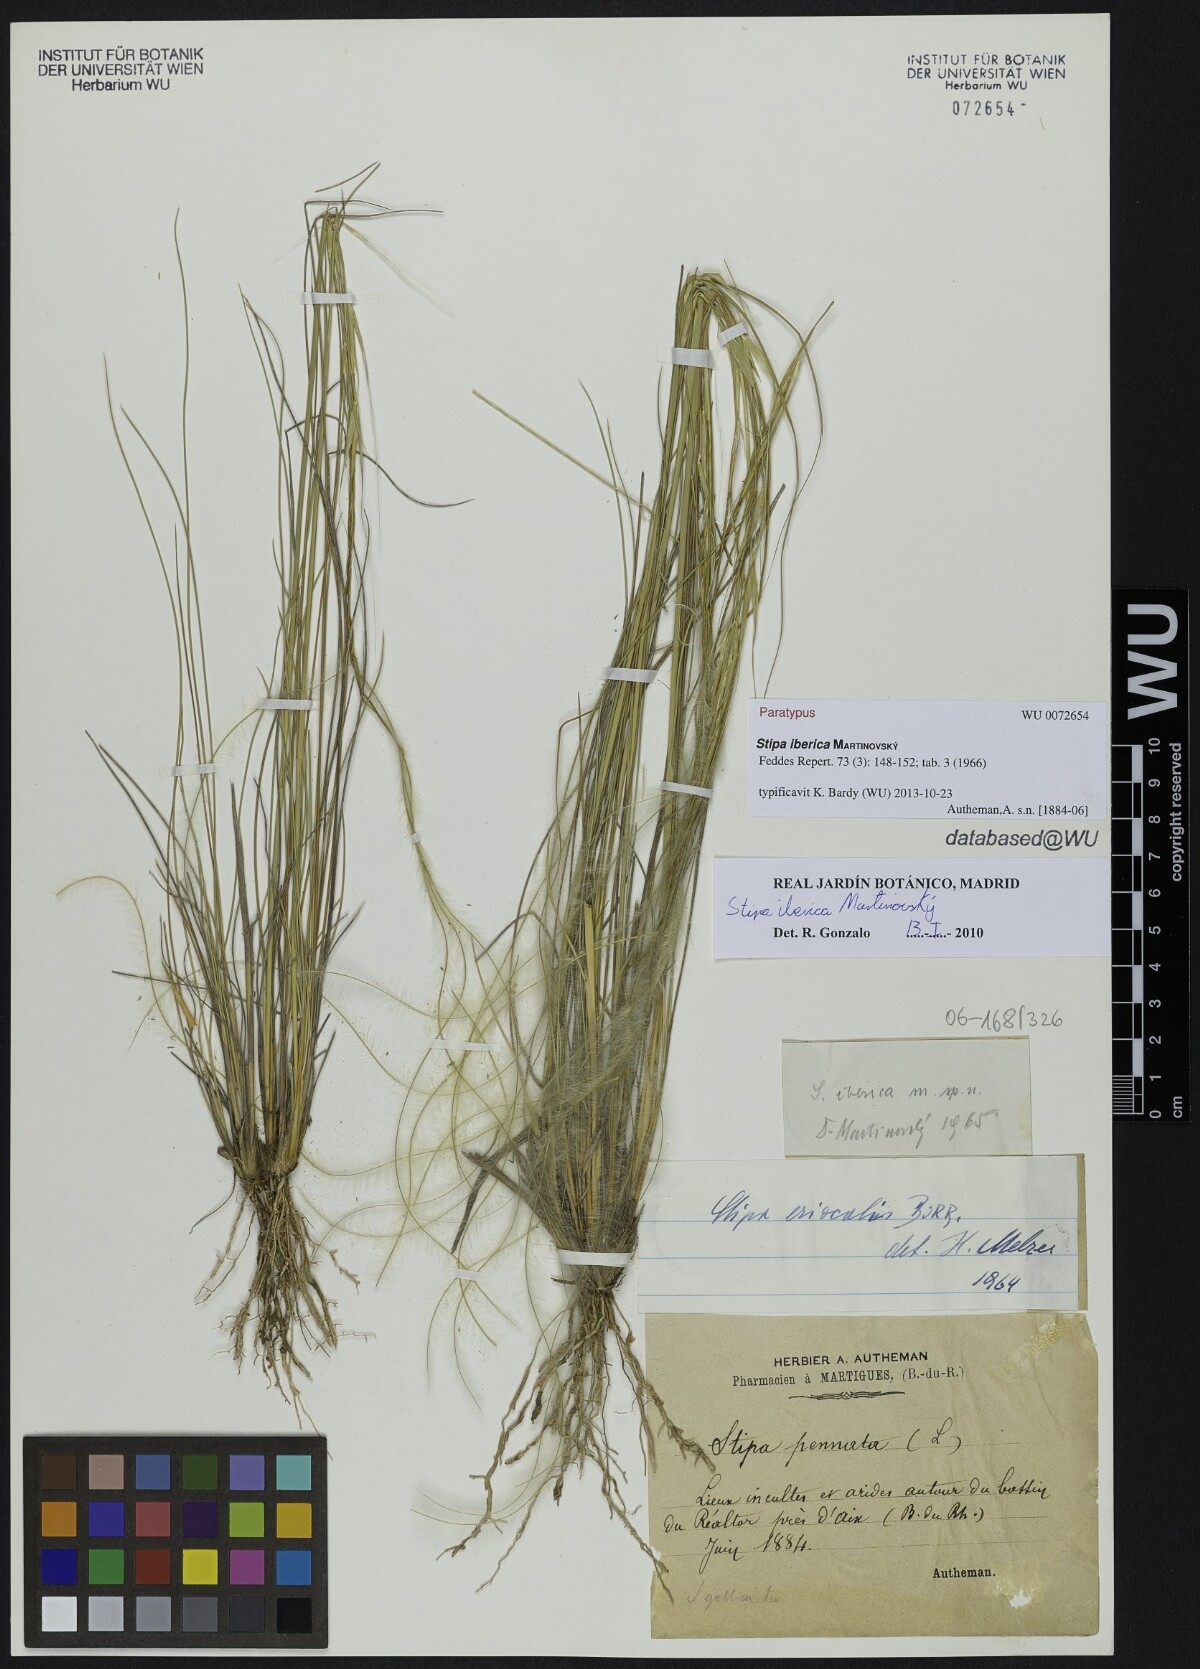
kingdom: Plantae
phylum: Tracheophyta
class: Liliopsida
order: Poales
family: Poaceae
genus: Stipa
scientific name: Stipa iberica
